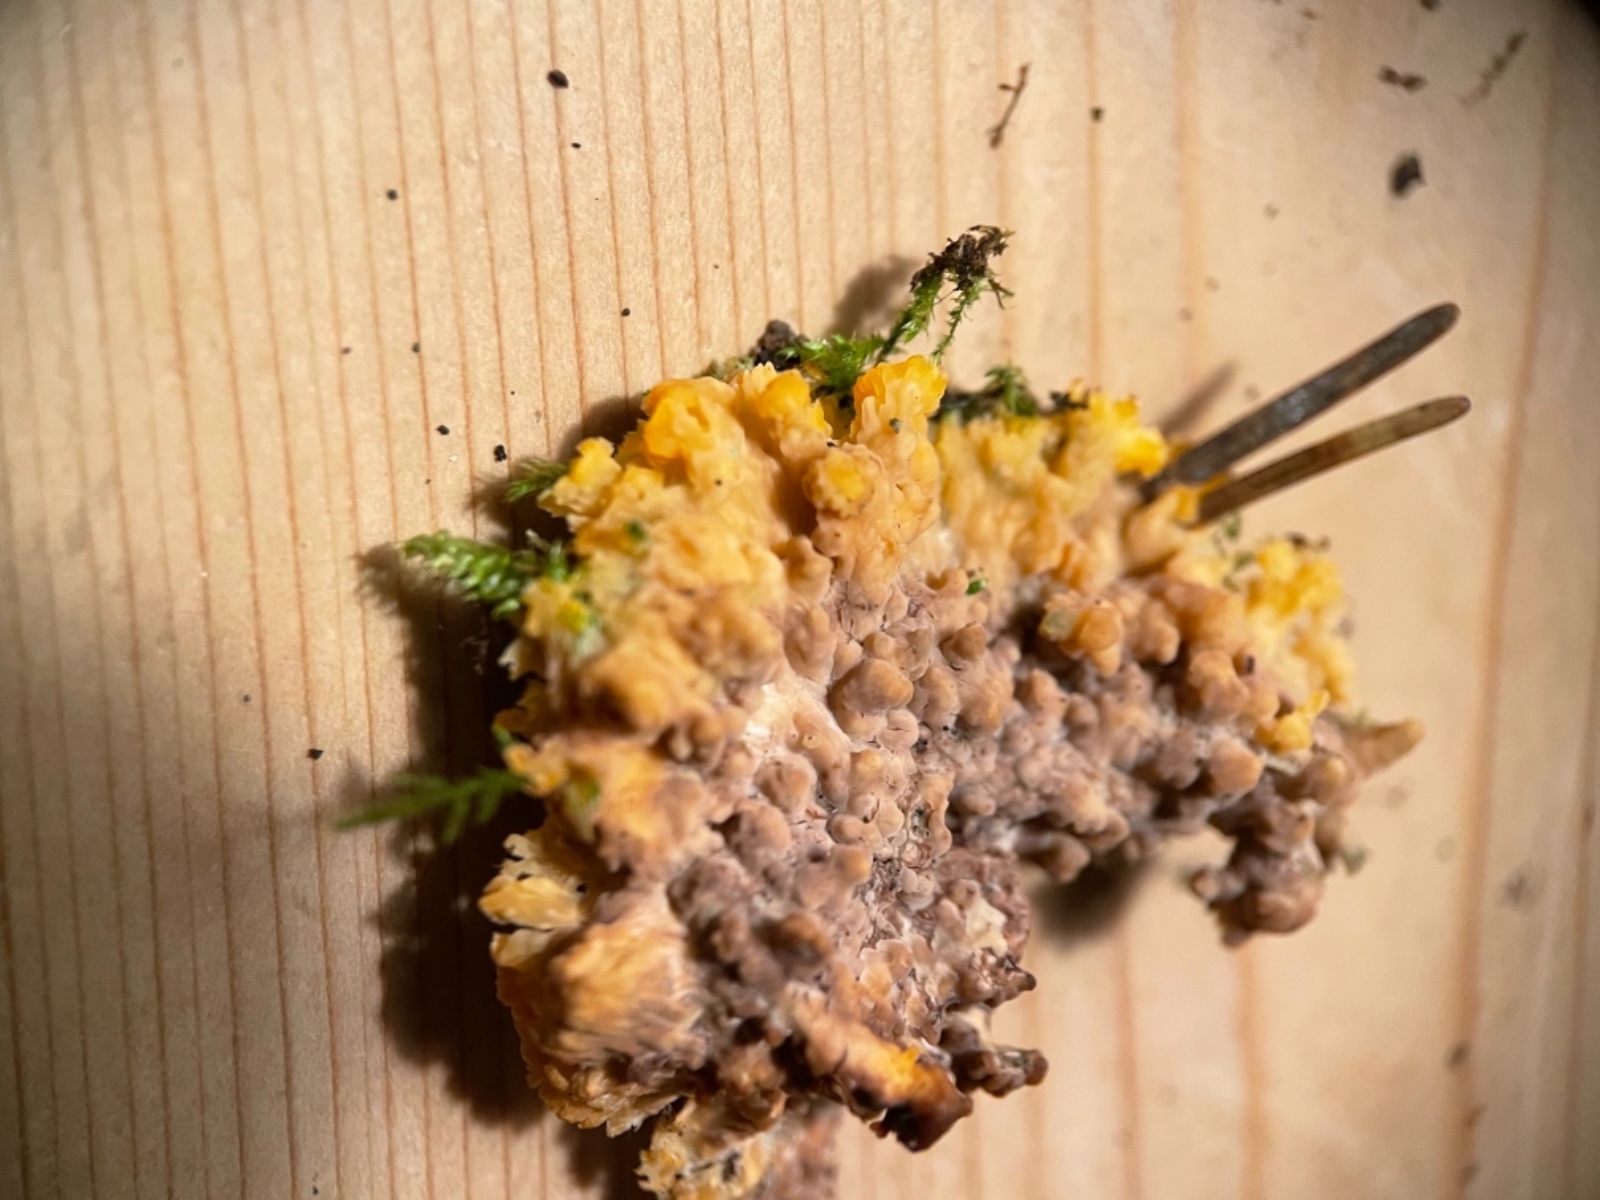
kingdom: Fungi
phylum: Basidiomycota
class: Agaricomycetes
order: Polyporales
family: Meruliaceae
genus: Phlebia
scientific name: Phlebia radiata
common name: stråle-åresvamp
